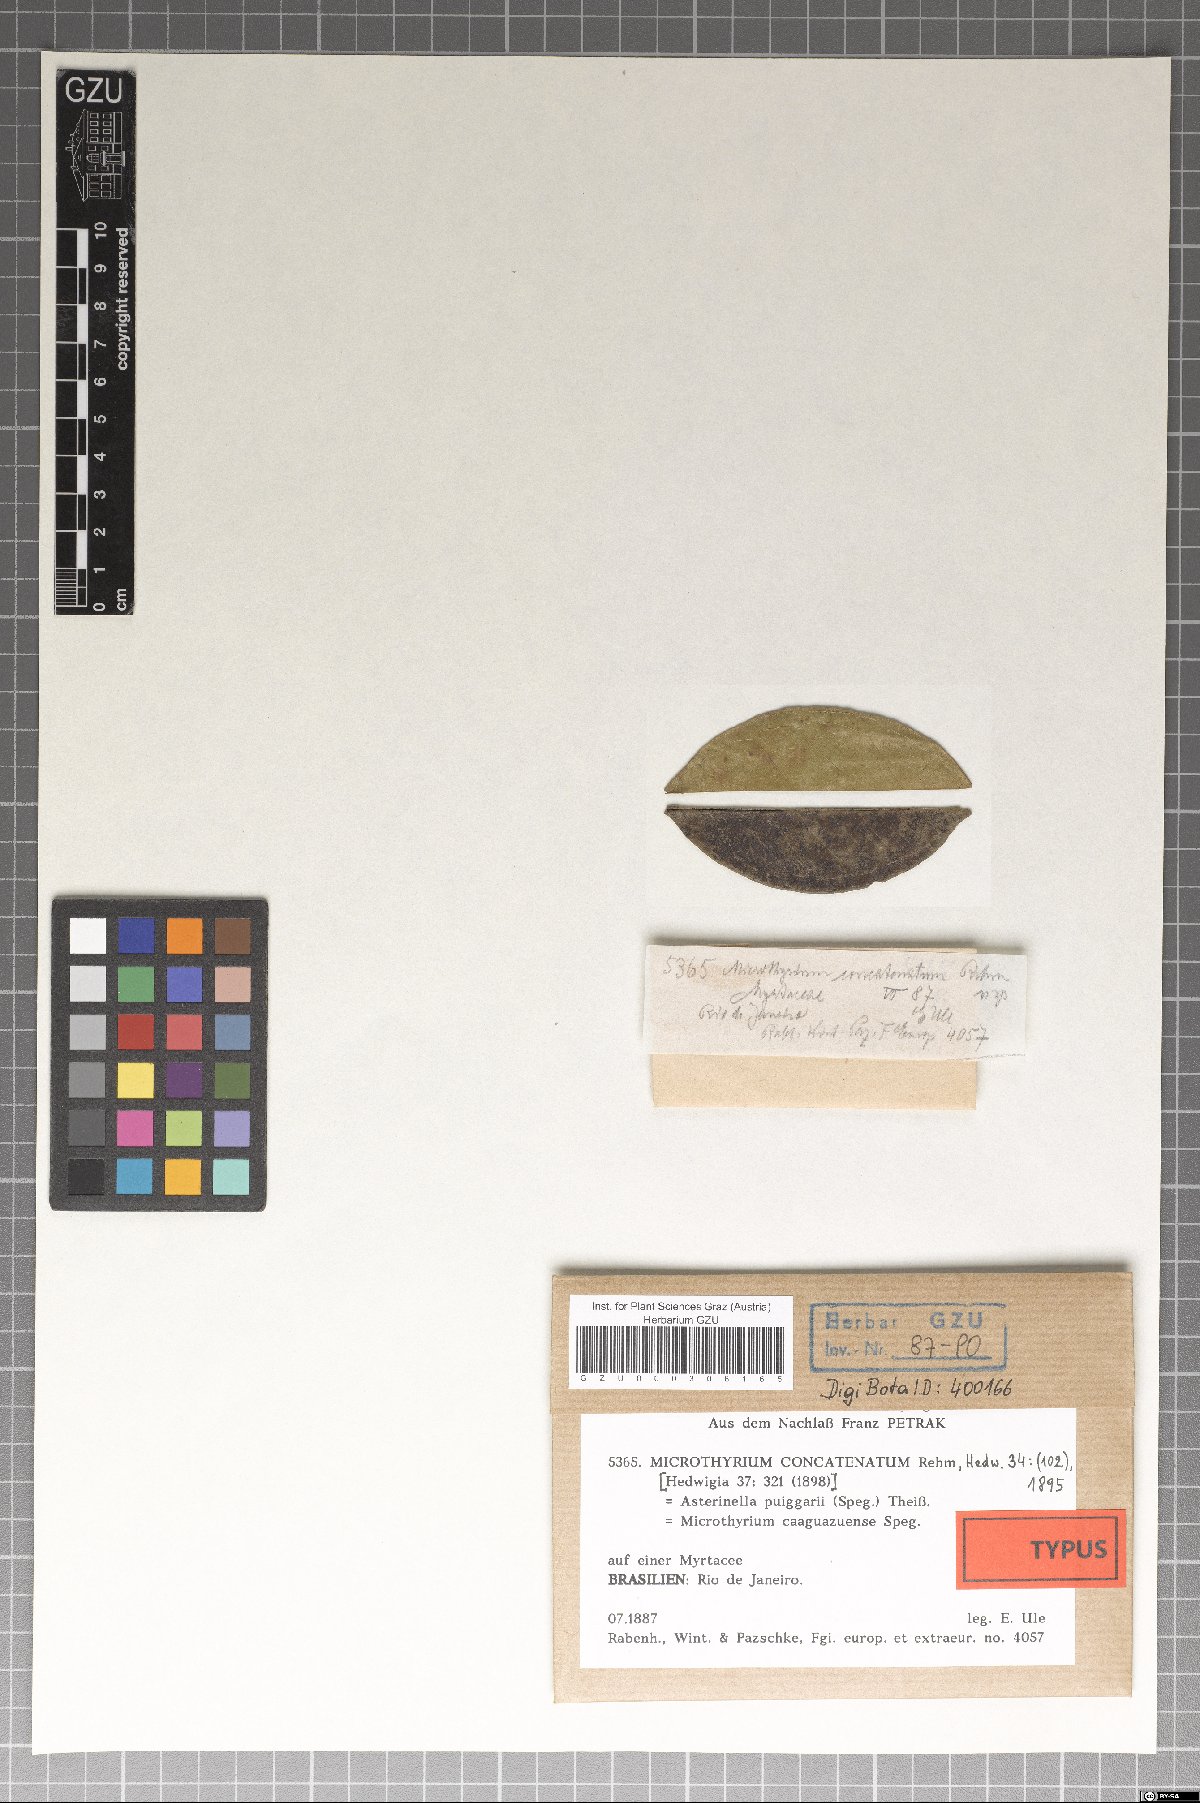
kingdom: Fungi
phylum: Ascomycota
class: Dothideomycetes
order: Microthyriales
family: Microthyriaceae
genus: Microthyrium
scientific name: Microthyrium
